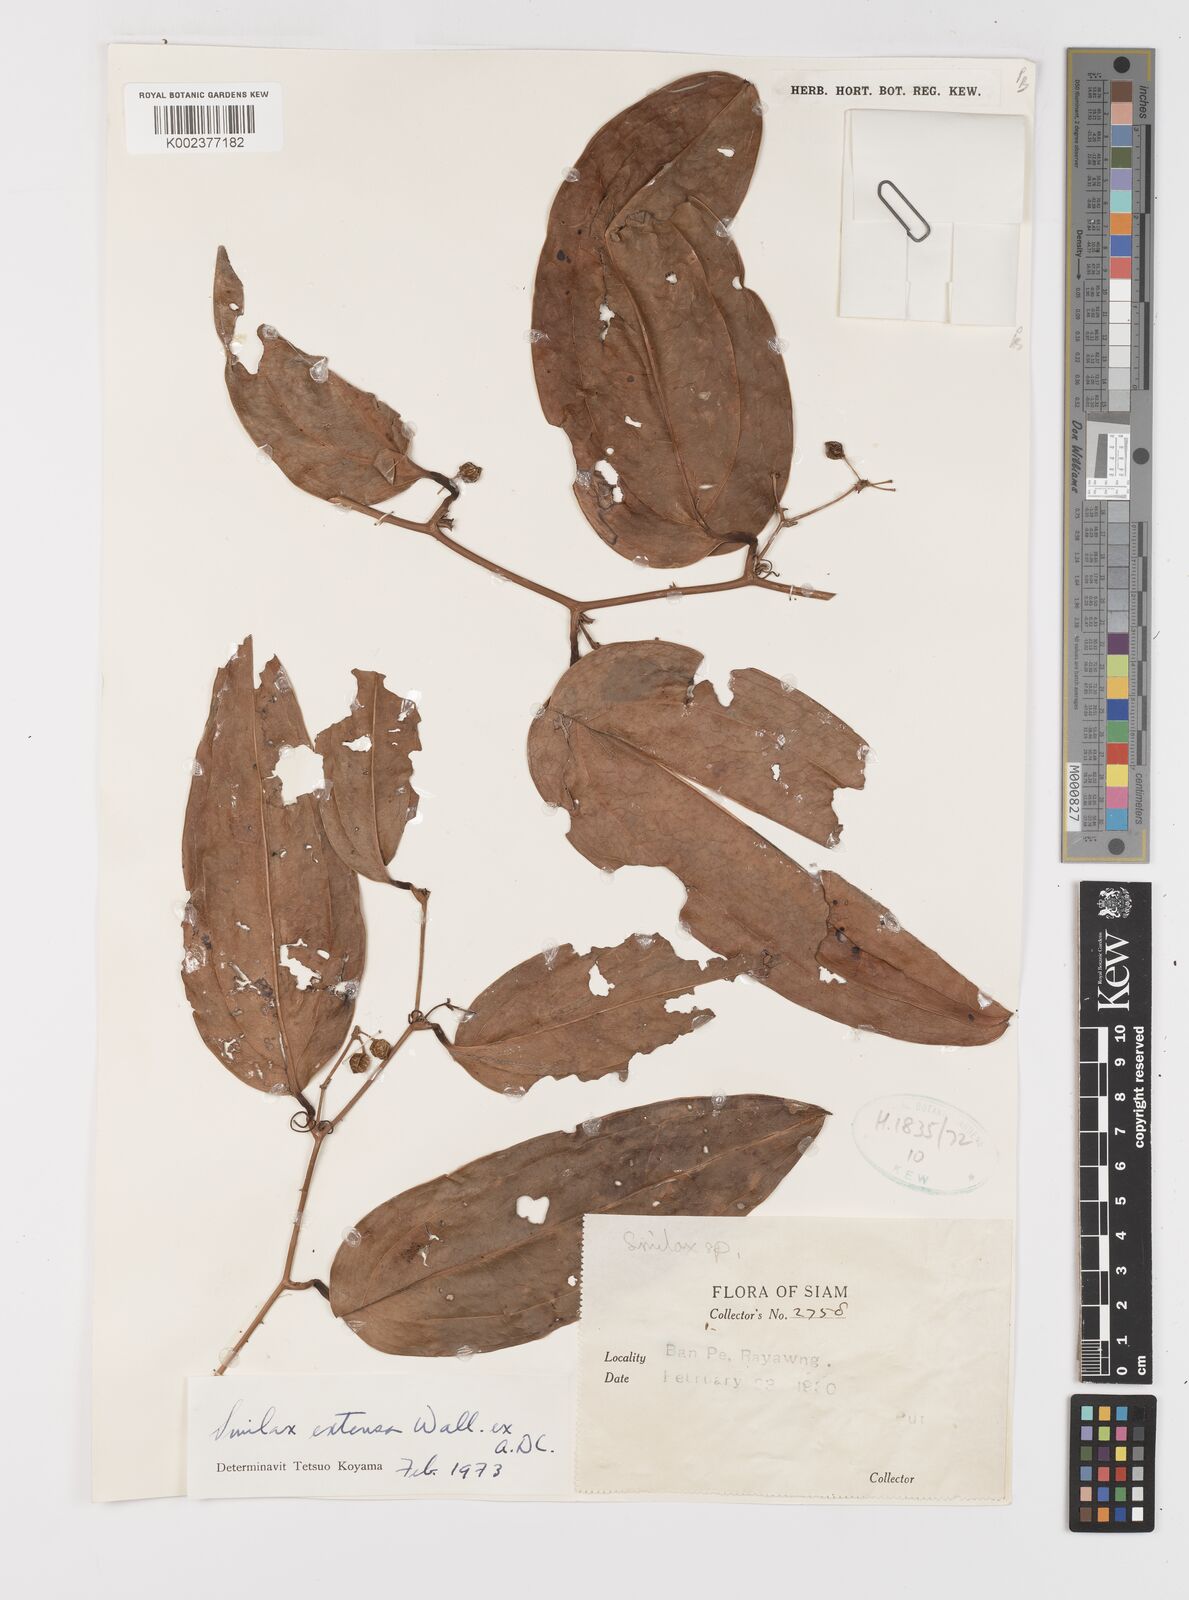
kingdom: Plantae
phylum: Tracheophyta
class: Liliopsida
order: Liliales
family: Smilacaceae
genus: Smilax
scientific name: Smilax extensa
